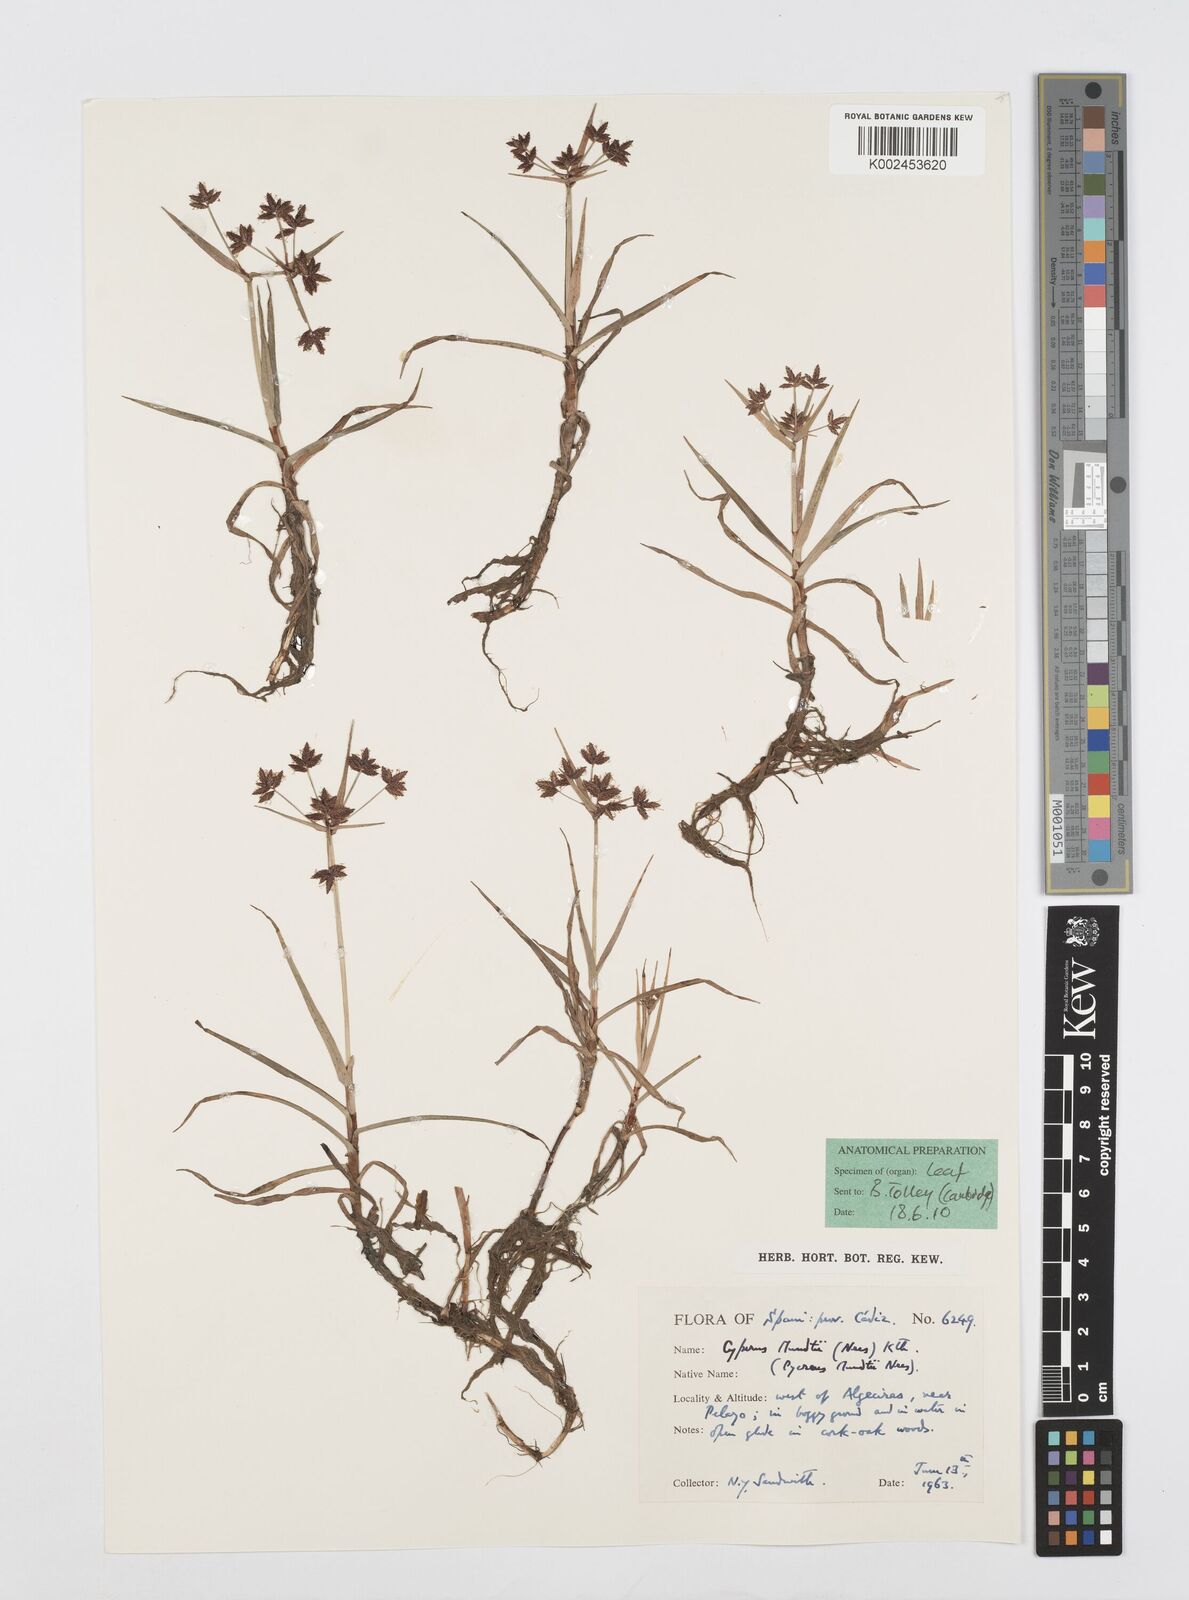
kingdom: Plantae
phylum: Tracheophyta
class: Liliopsida
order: Poales
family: Cyperaceae
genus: Cyperus
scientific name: Cyperus mundii
